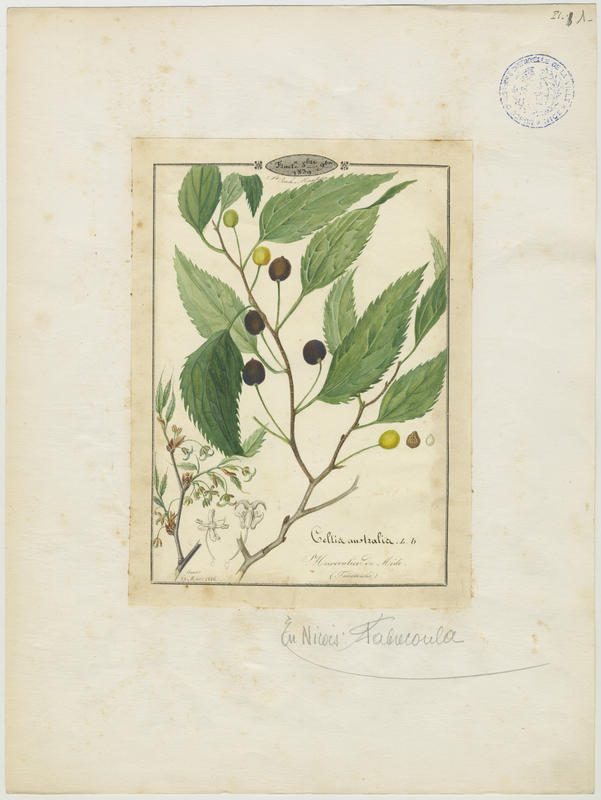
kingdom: Plantae
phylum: Tracheophyta
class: Magnoliopsida
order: Rosales
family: Cannabaceae
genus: Celtis
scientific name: Celtis australis
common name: European hackberry
